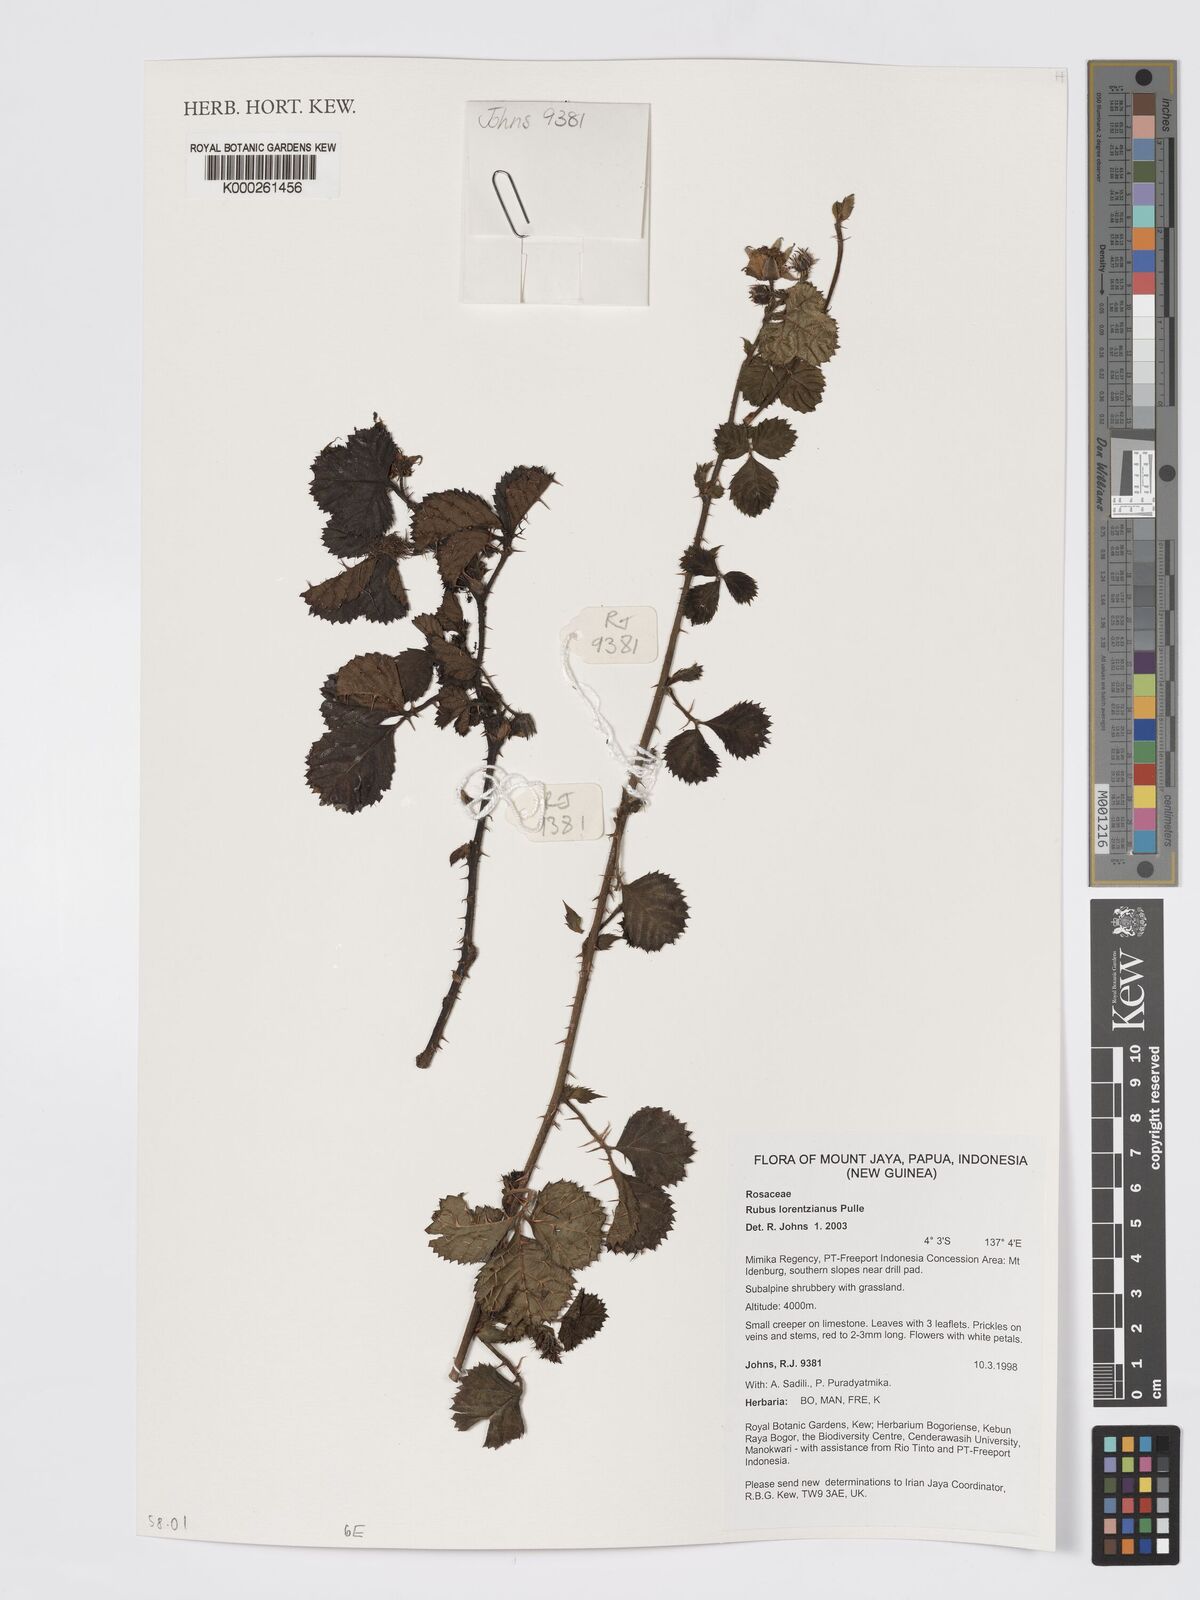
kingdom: Plantae
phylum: Tracheophyta
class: Magnoliopsida
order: Rosales
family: Rosaceae
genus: Rubus
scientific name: Rubus lorentzianus
